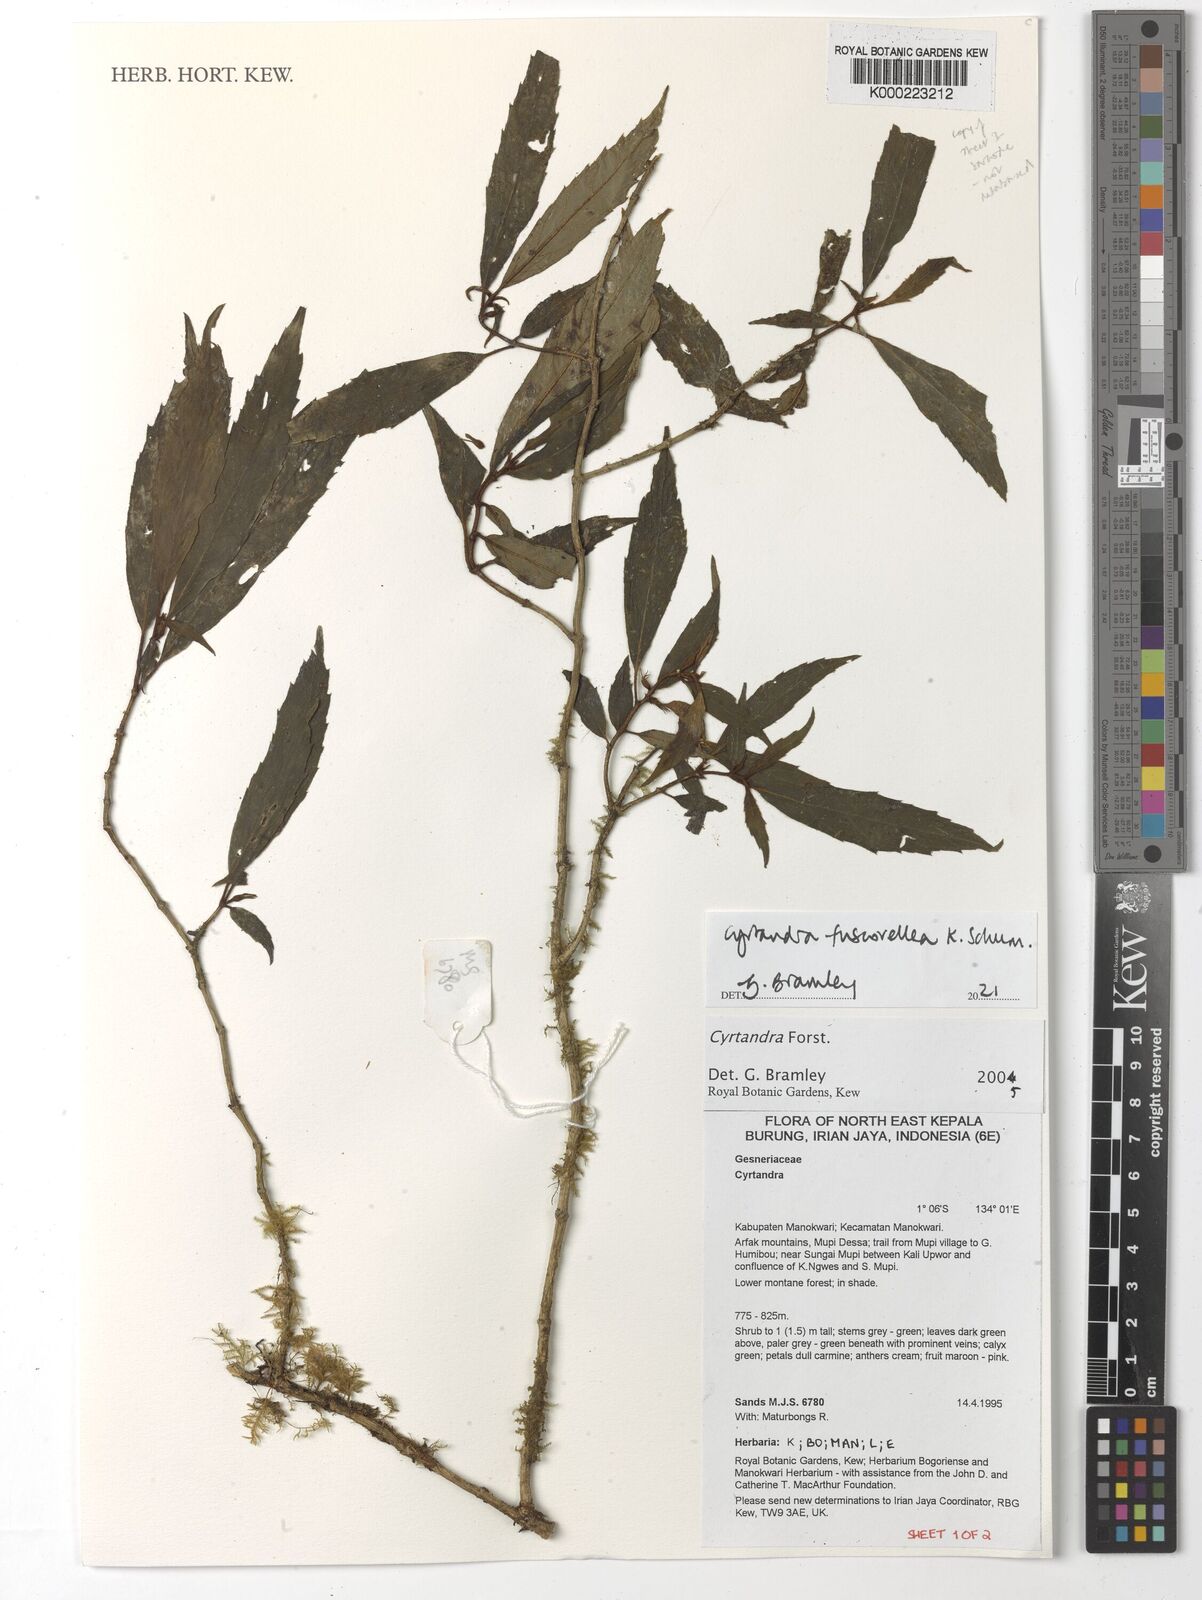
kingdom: Plantae
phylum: Tracheophyta
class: Magnoliopsida
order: Lamiales
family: Gesneriaceae
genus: Cyrtandra
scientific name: Cyrtandra
